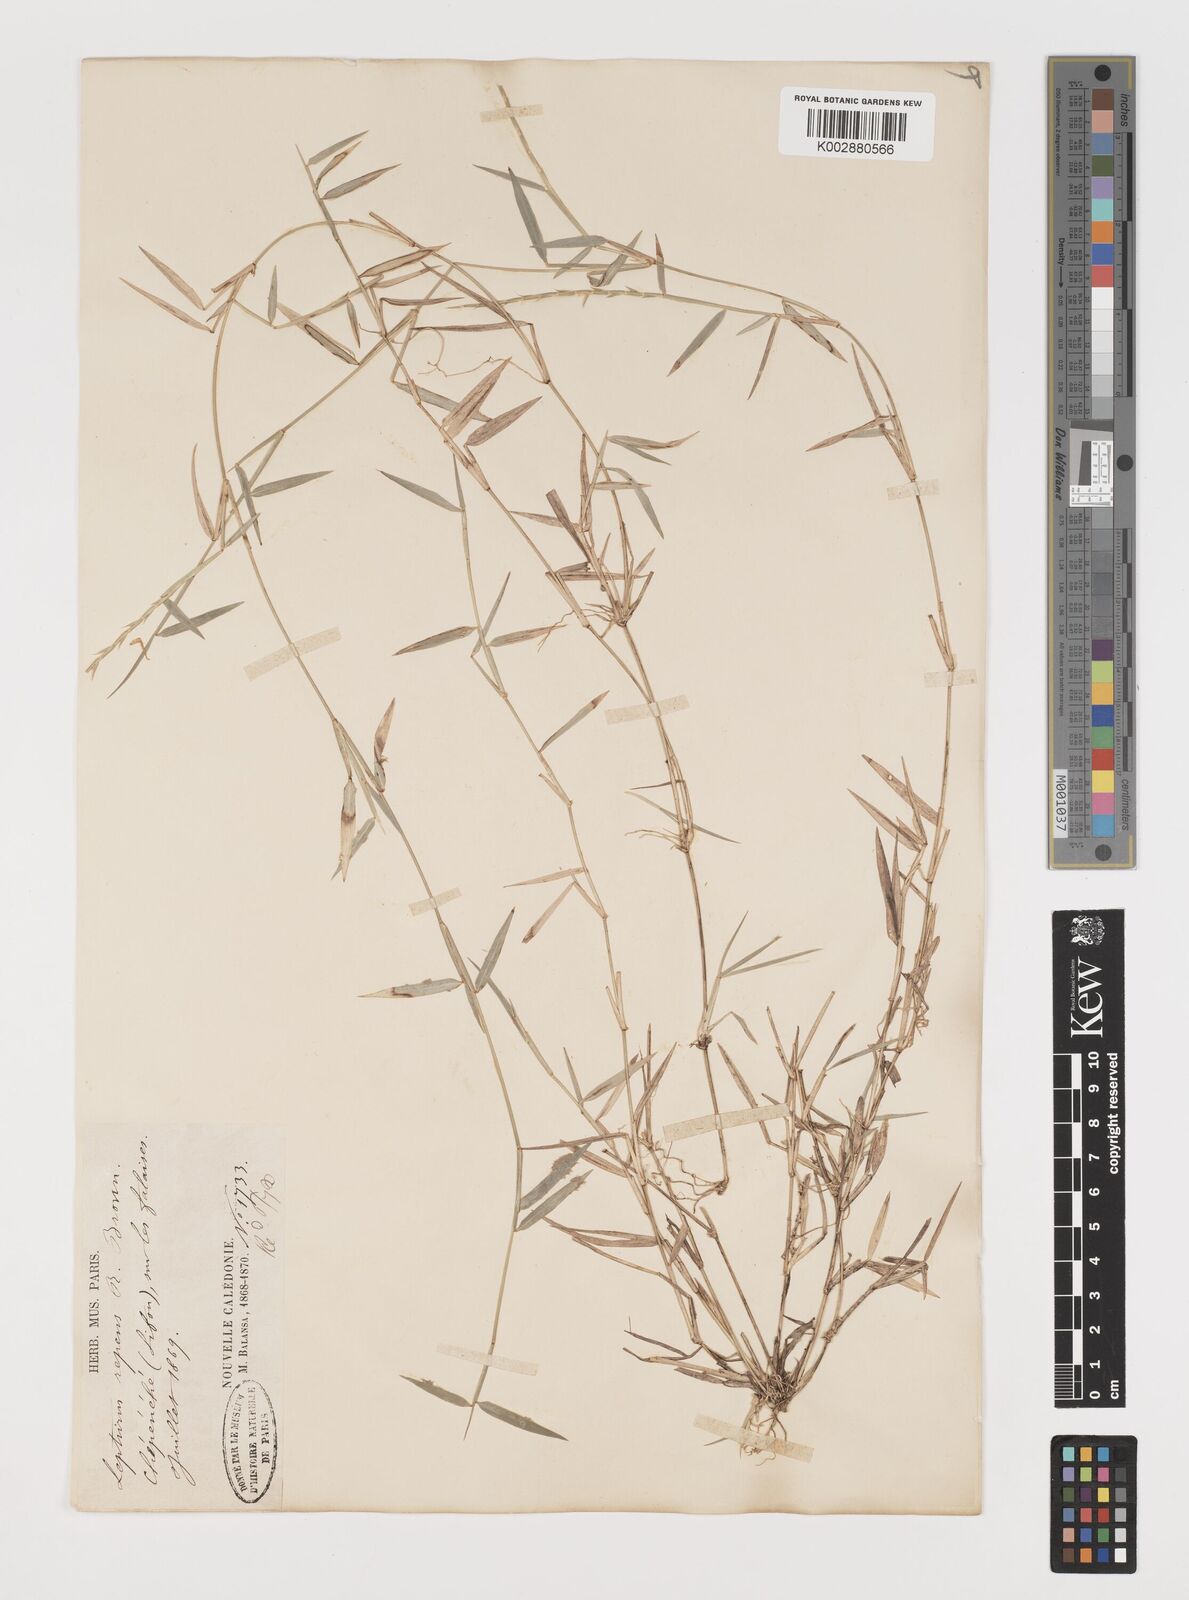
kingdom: Plantae
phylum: Tracheophyta
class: Liliopsida
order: Poales
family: Poaceae
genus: Lepturus
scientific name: Lepturus repens
